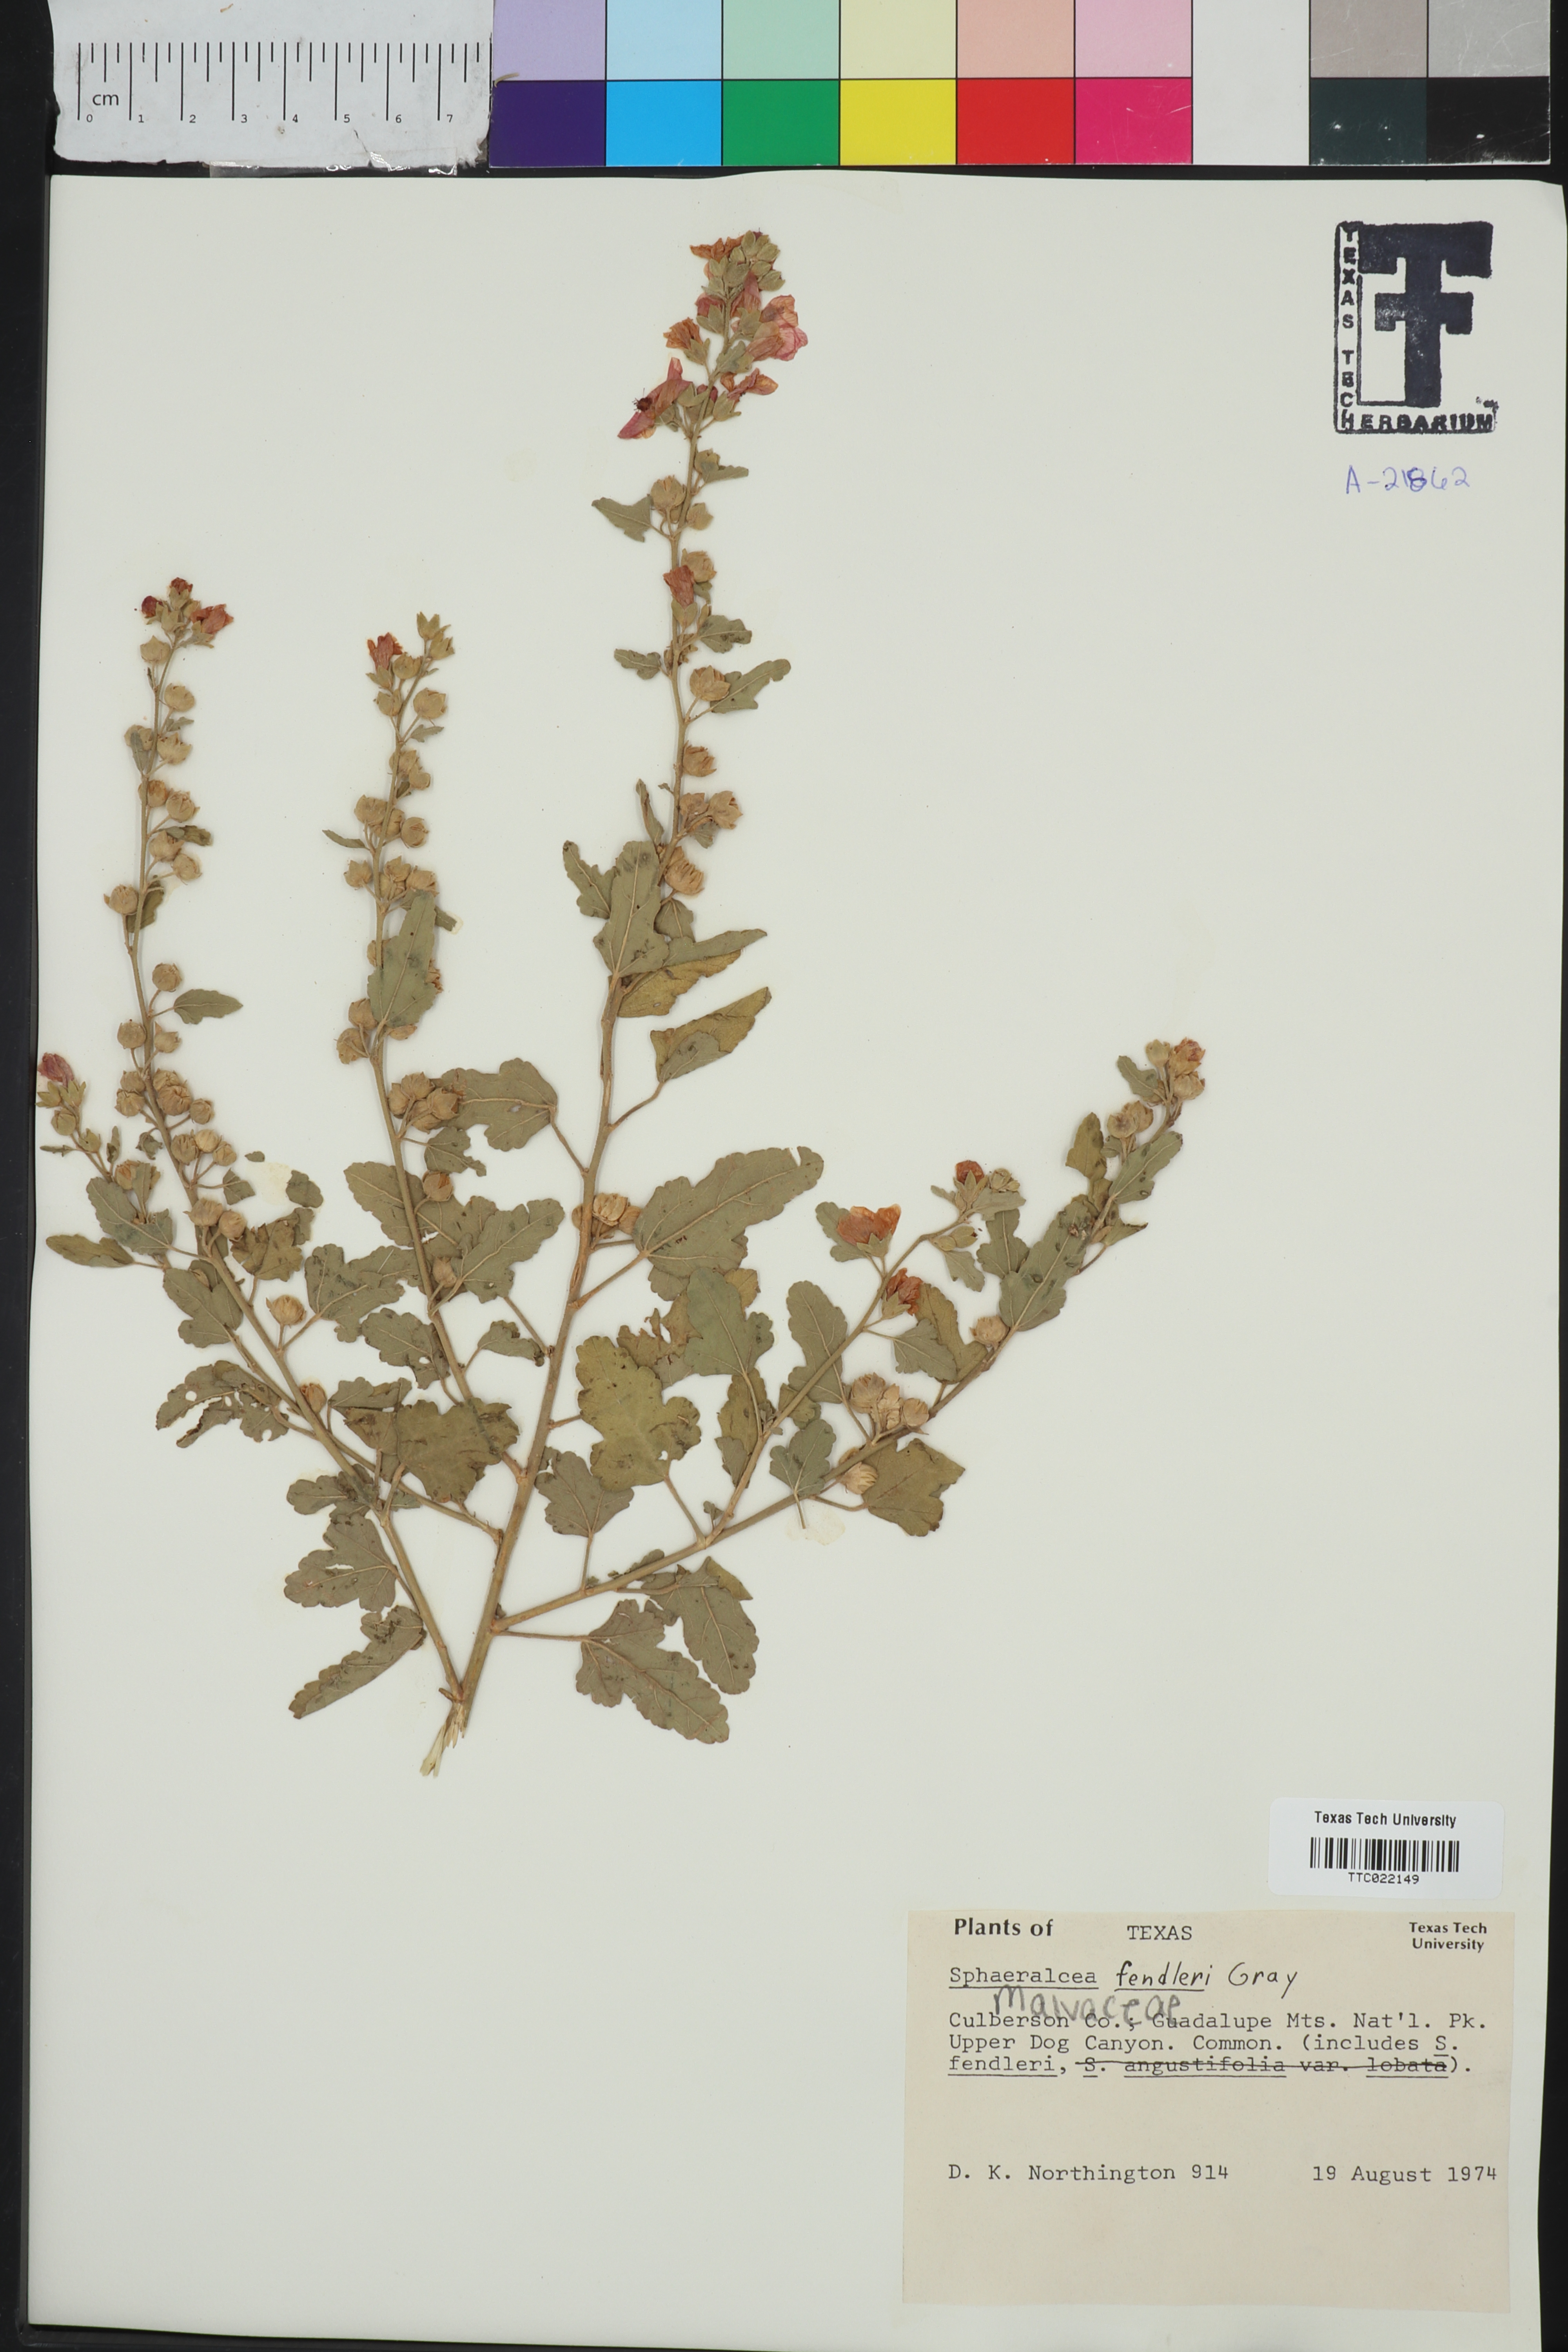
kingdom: Plantae
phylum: Tracheophyta
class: Magnoliopsida
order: Malvales
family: Malvaceae
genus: Sphaeralcea
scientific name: Sphaeralcea fendleri
